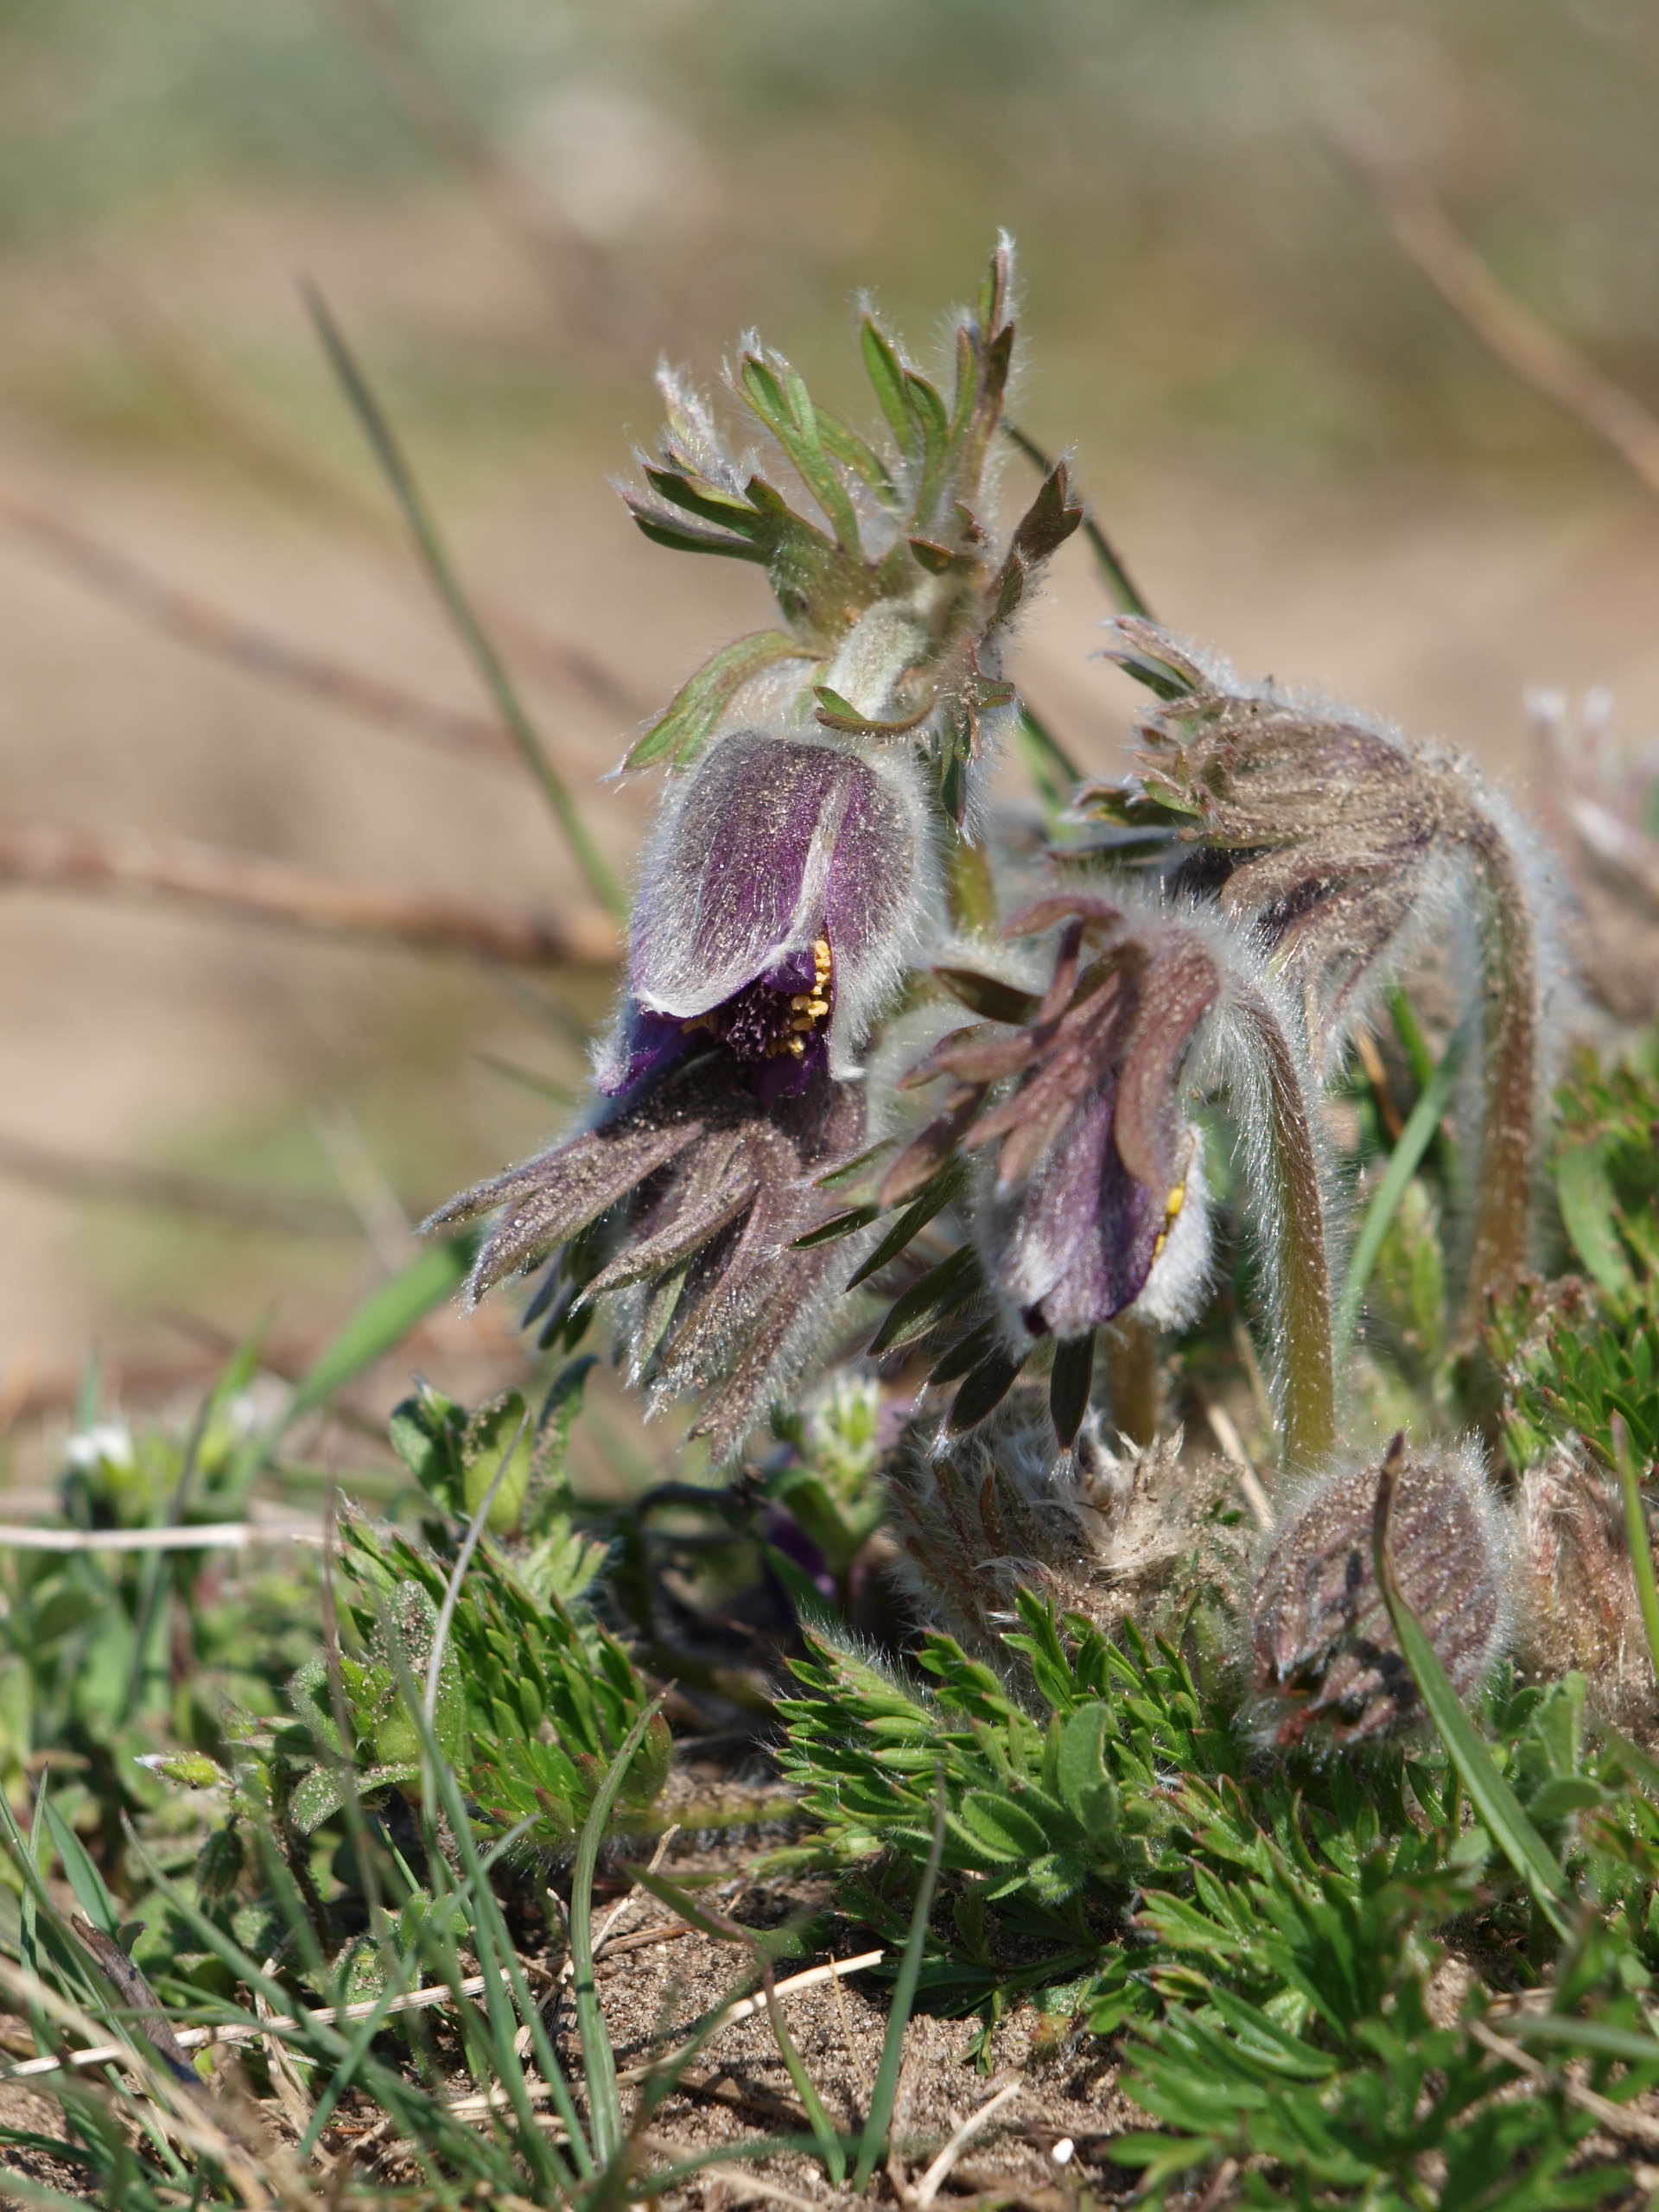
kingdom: Plantae
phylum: Tracheophyta
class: Magnoliopsida
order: Ranunculales
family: Ranunculaceae
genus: Pulsatilla
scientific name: Pulsatilla pratensis
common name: Nikkende kobjælde
